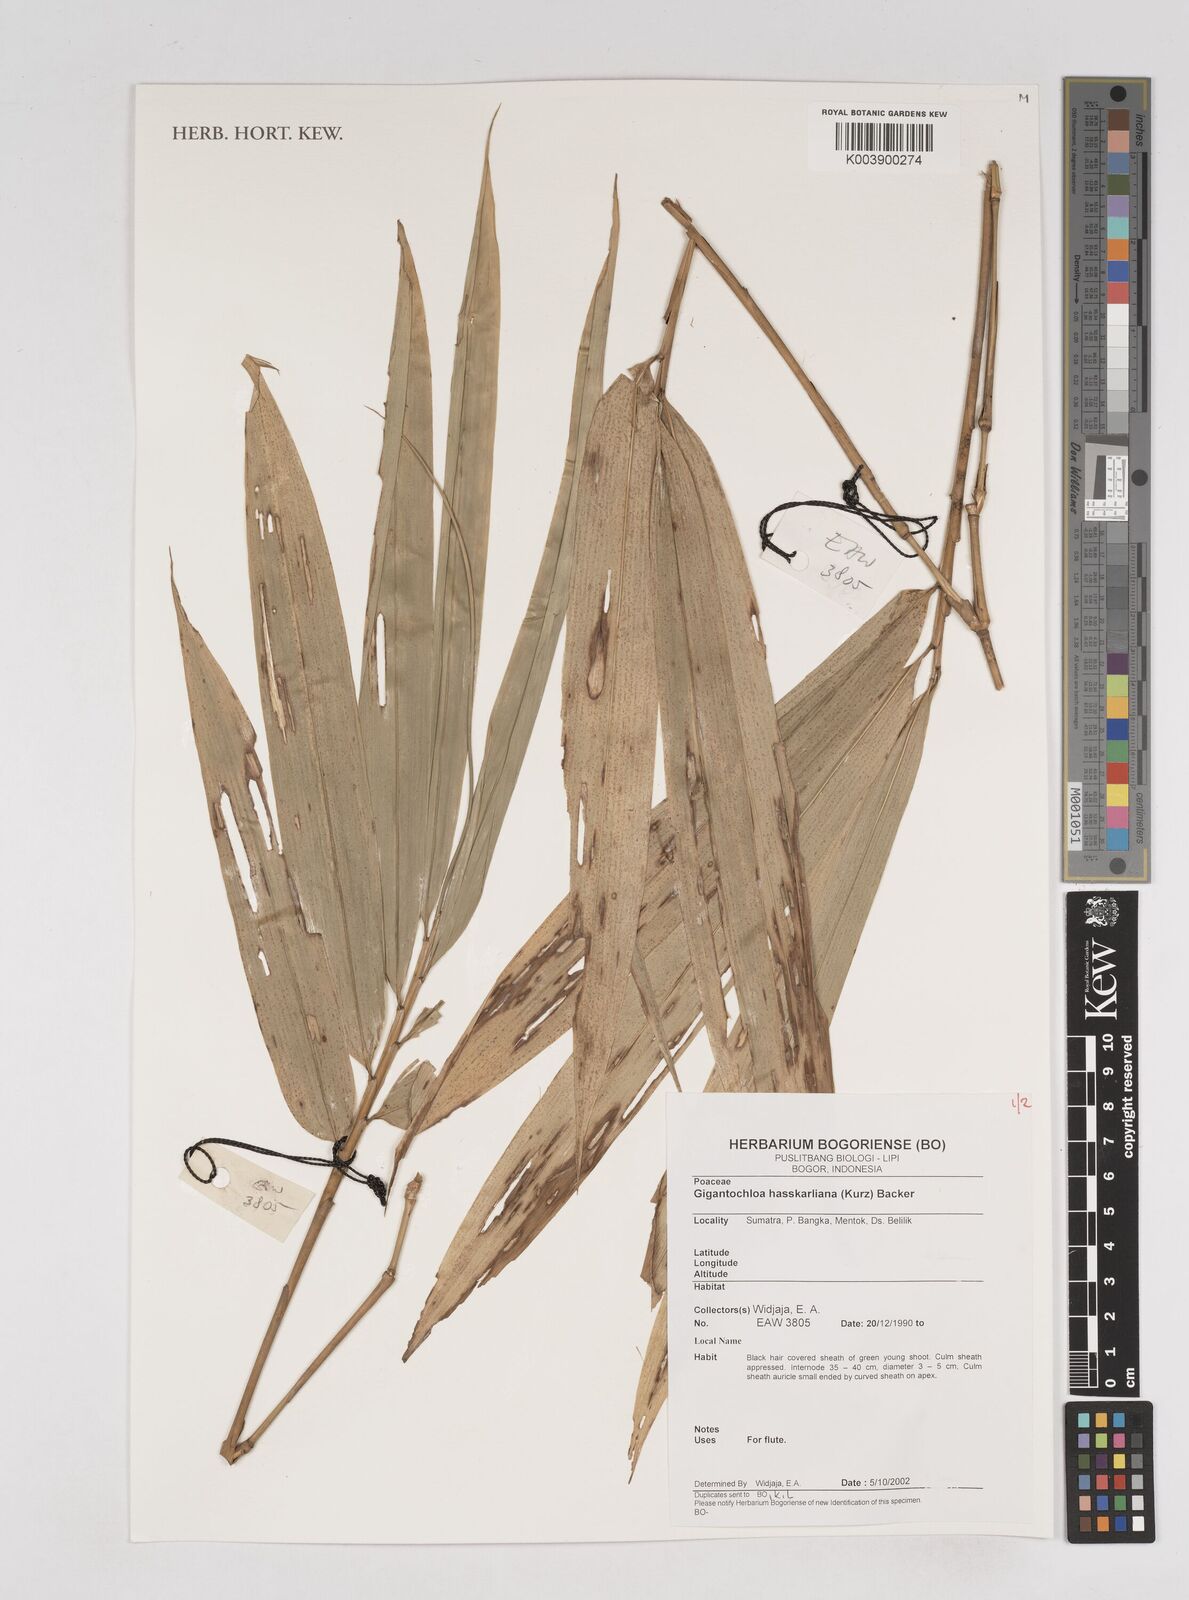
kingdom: Plantae
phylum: Tracheophyta
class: Liliopsida
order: Poales
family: Poaceae
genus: Gigantochloa
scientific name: Gigantochloa hasskarliana
